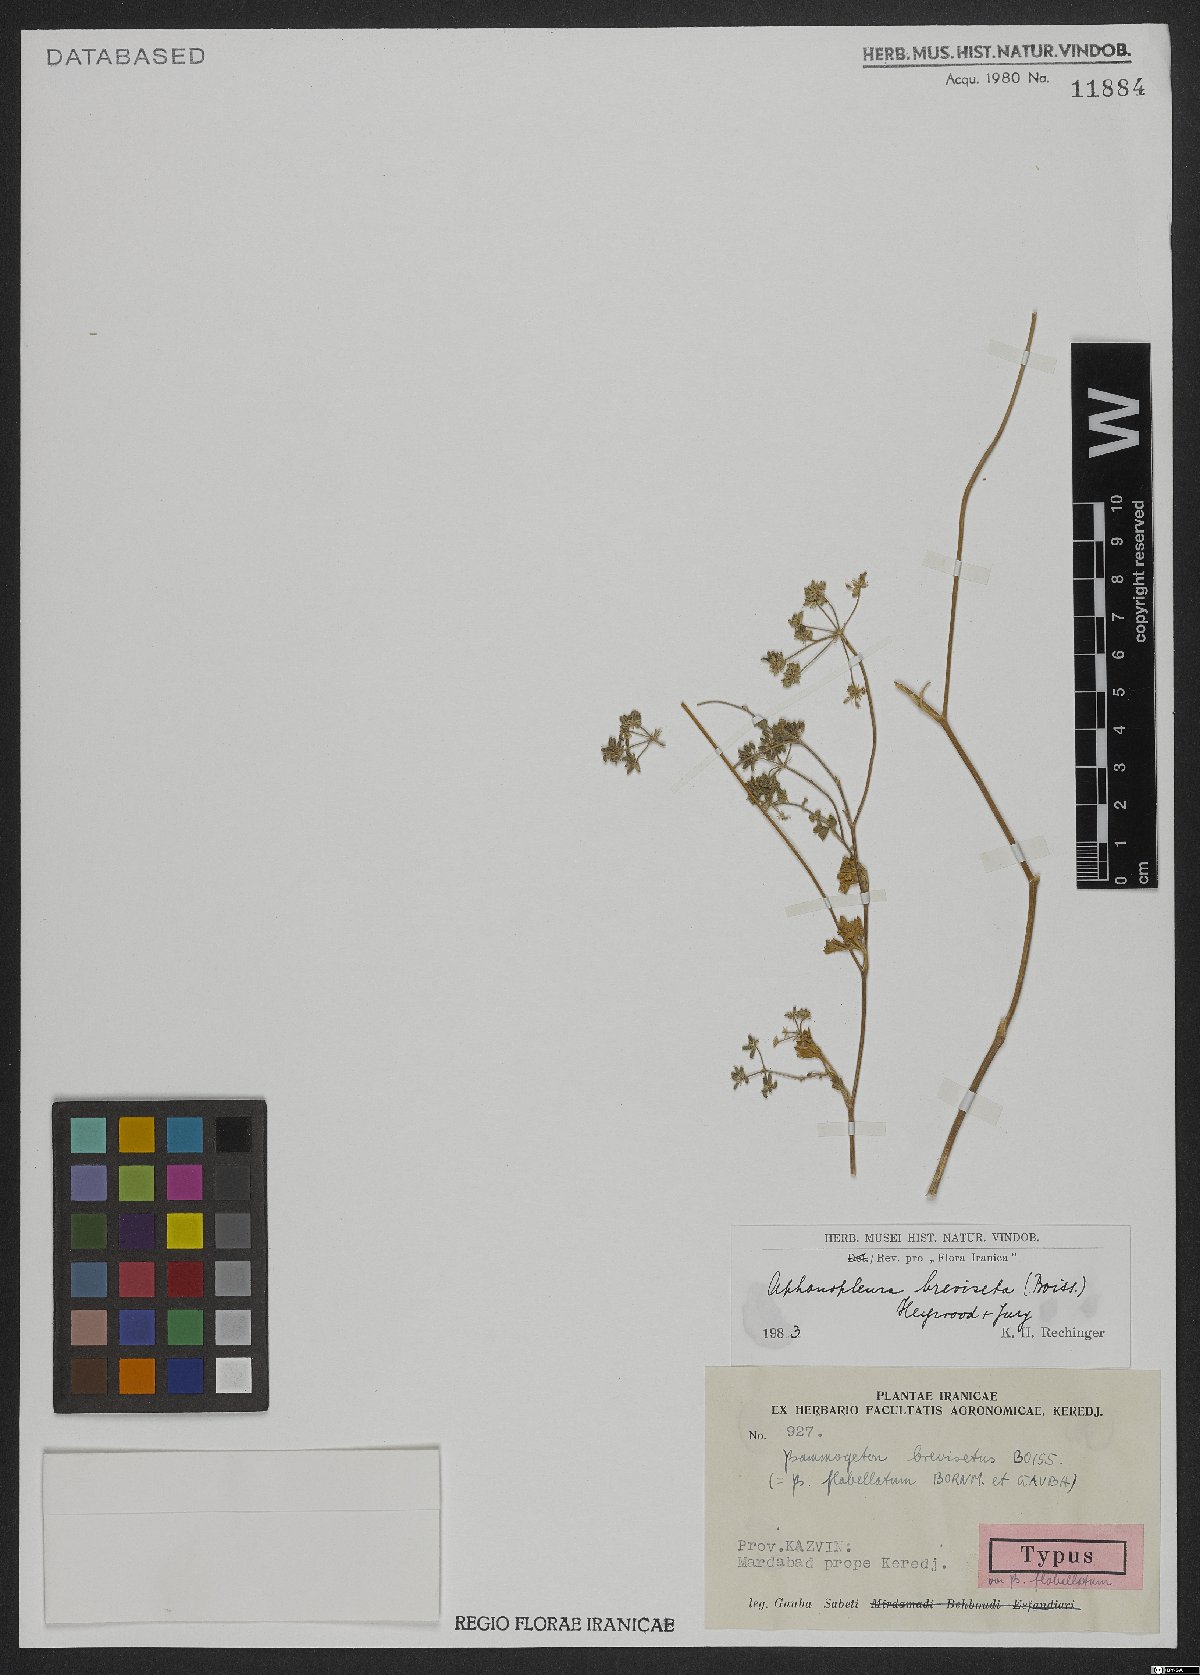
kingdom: Plantae
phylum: Tracheophyta
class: Magnoliopsida
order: Apiales
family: Apiaceae
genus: Aphanopleura
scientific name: Aphanopleura breviseta
